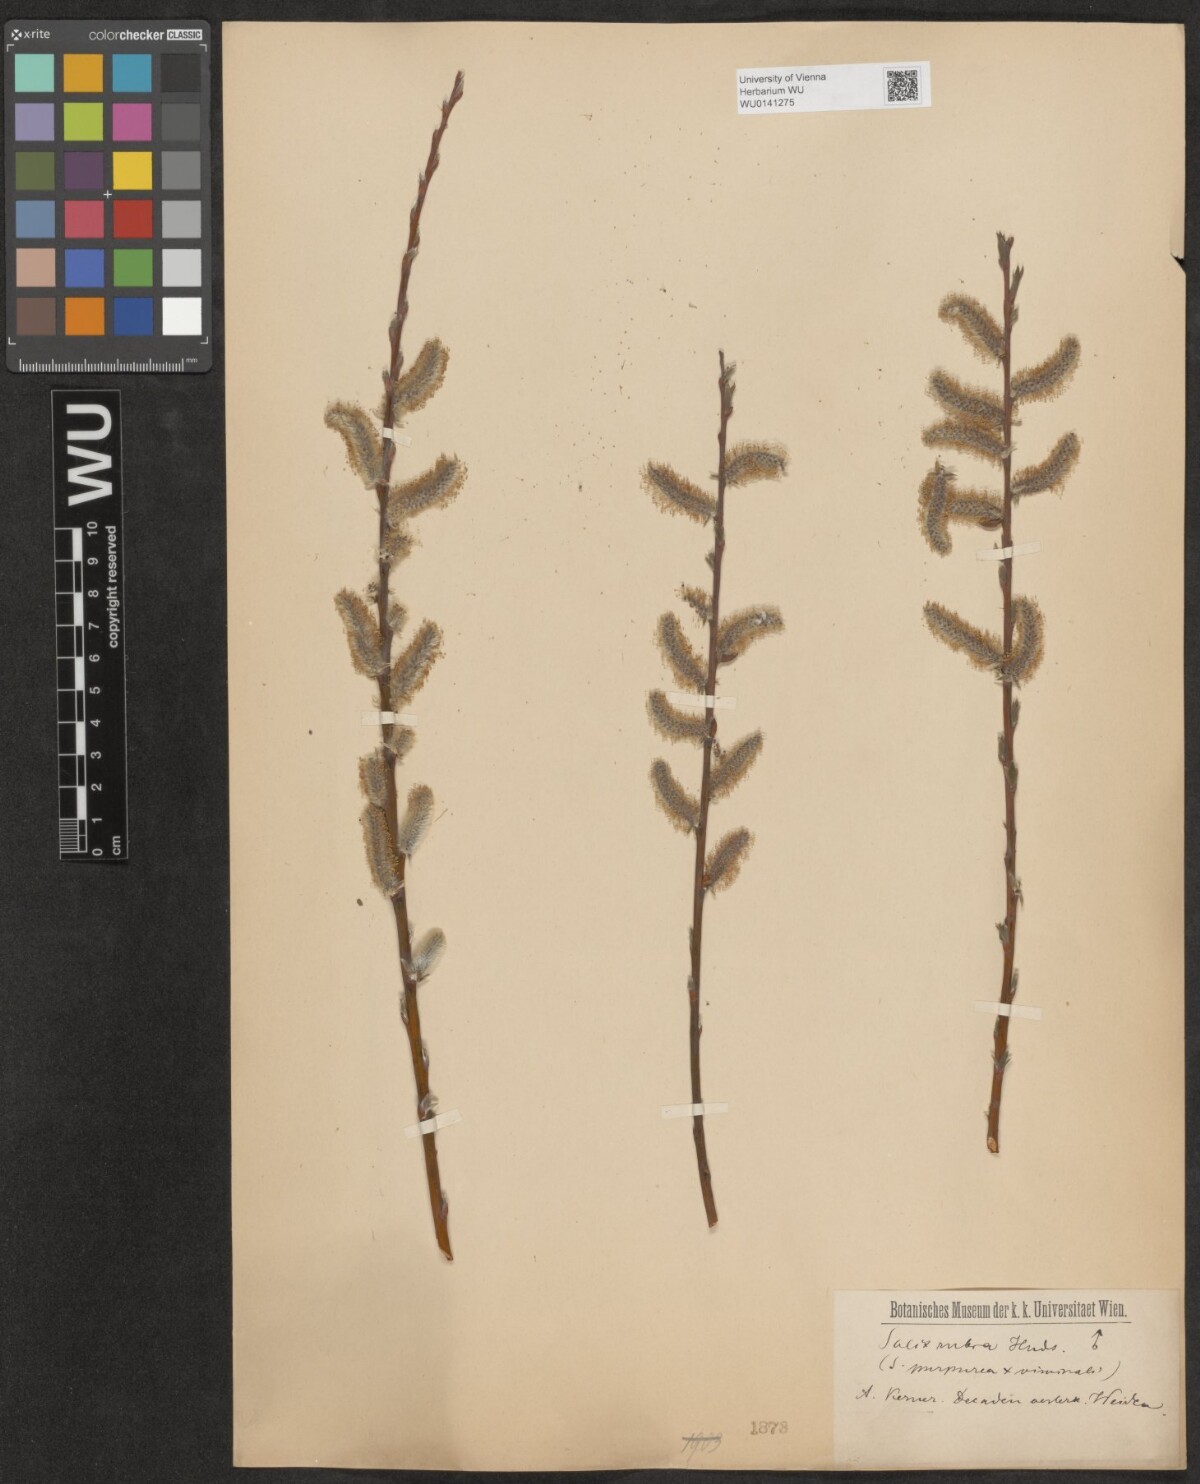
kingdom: Plantae
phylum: Tracheophyta
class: Magnoliopsida
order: Malpighiales
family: Salicaceae
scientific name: Salicaceae
